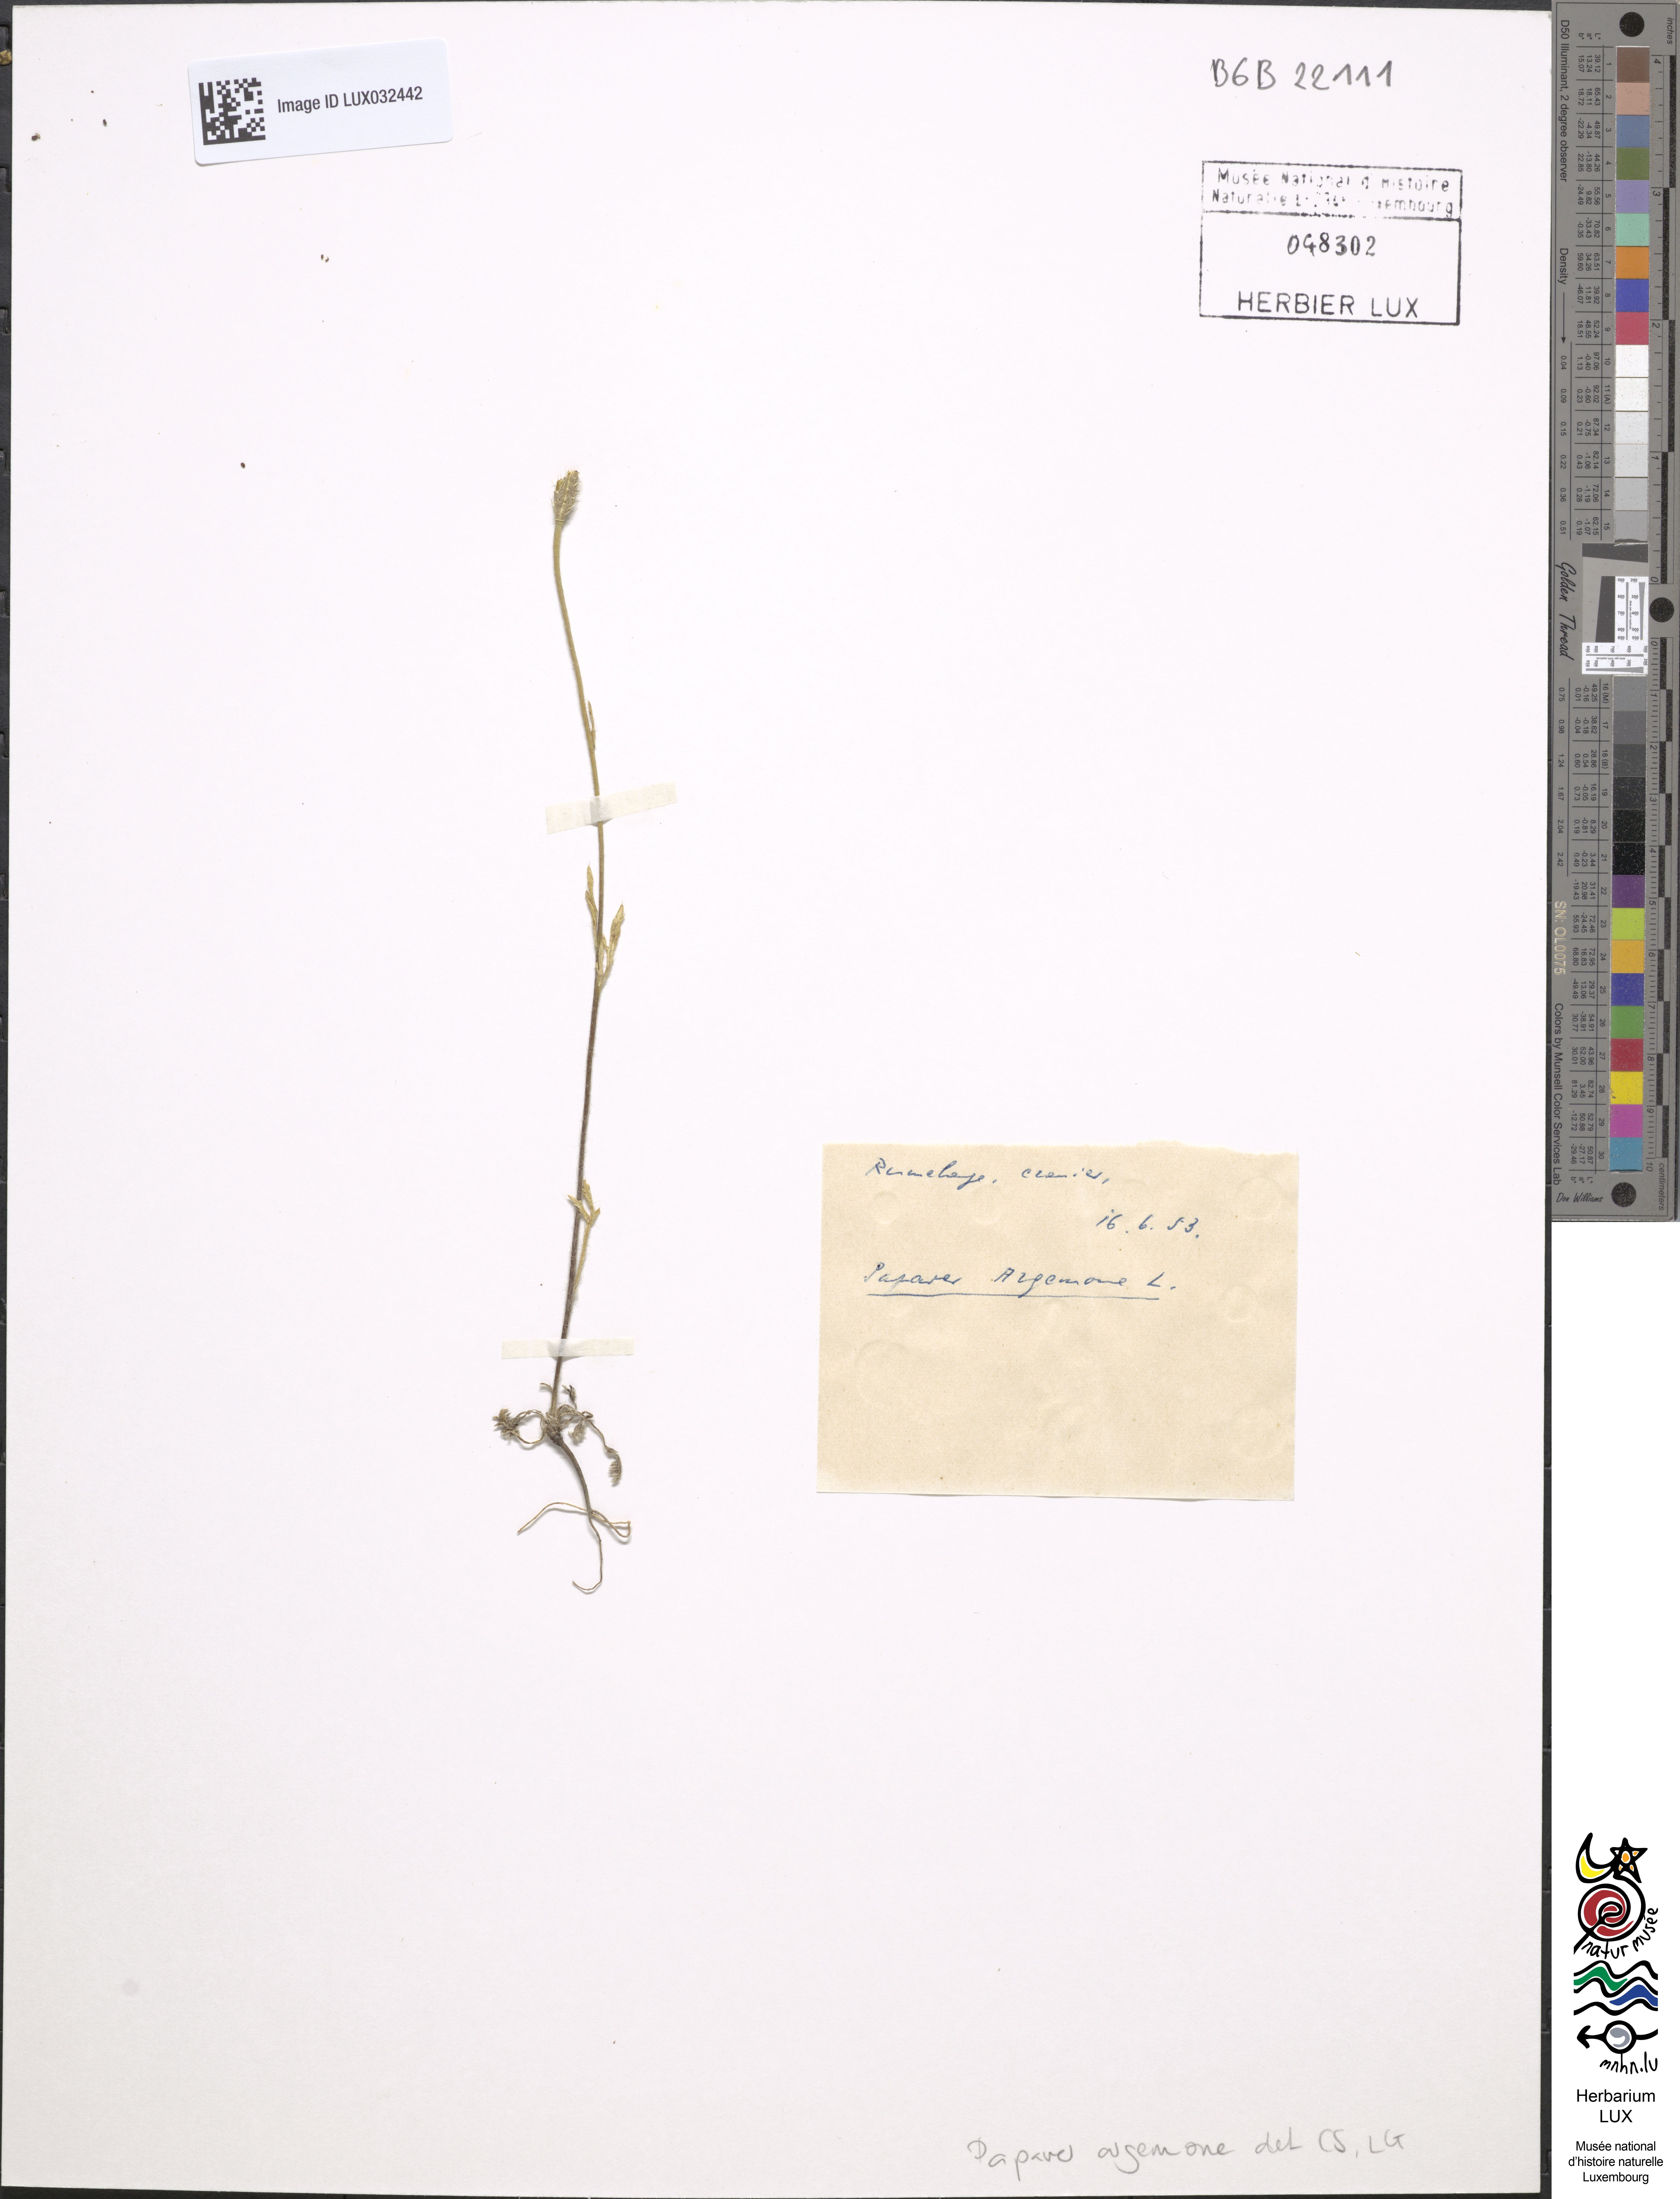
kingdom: Plantae
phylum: Tracheophyta
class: Magnoliopsida
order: Ranunculales
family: Papaveraceae
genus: Roemeria
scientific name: Roemeria argemone
